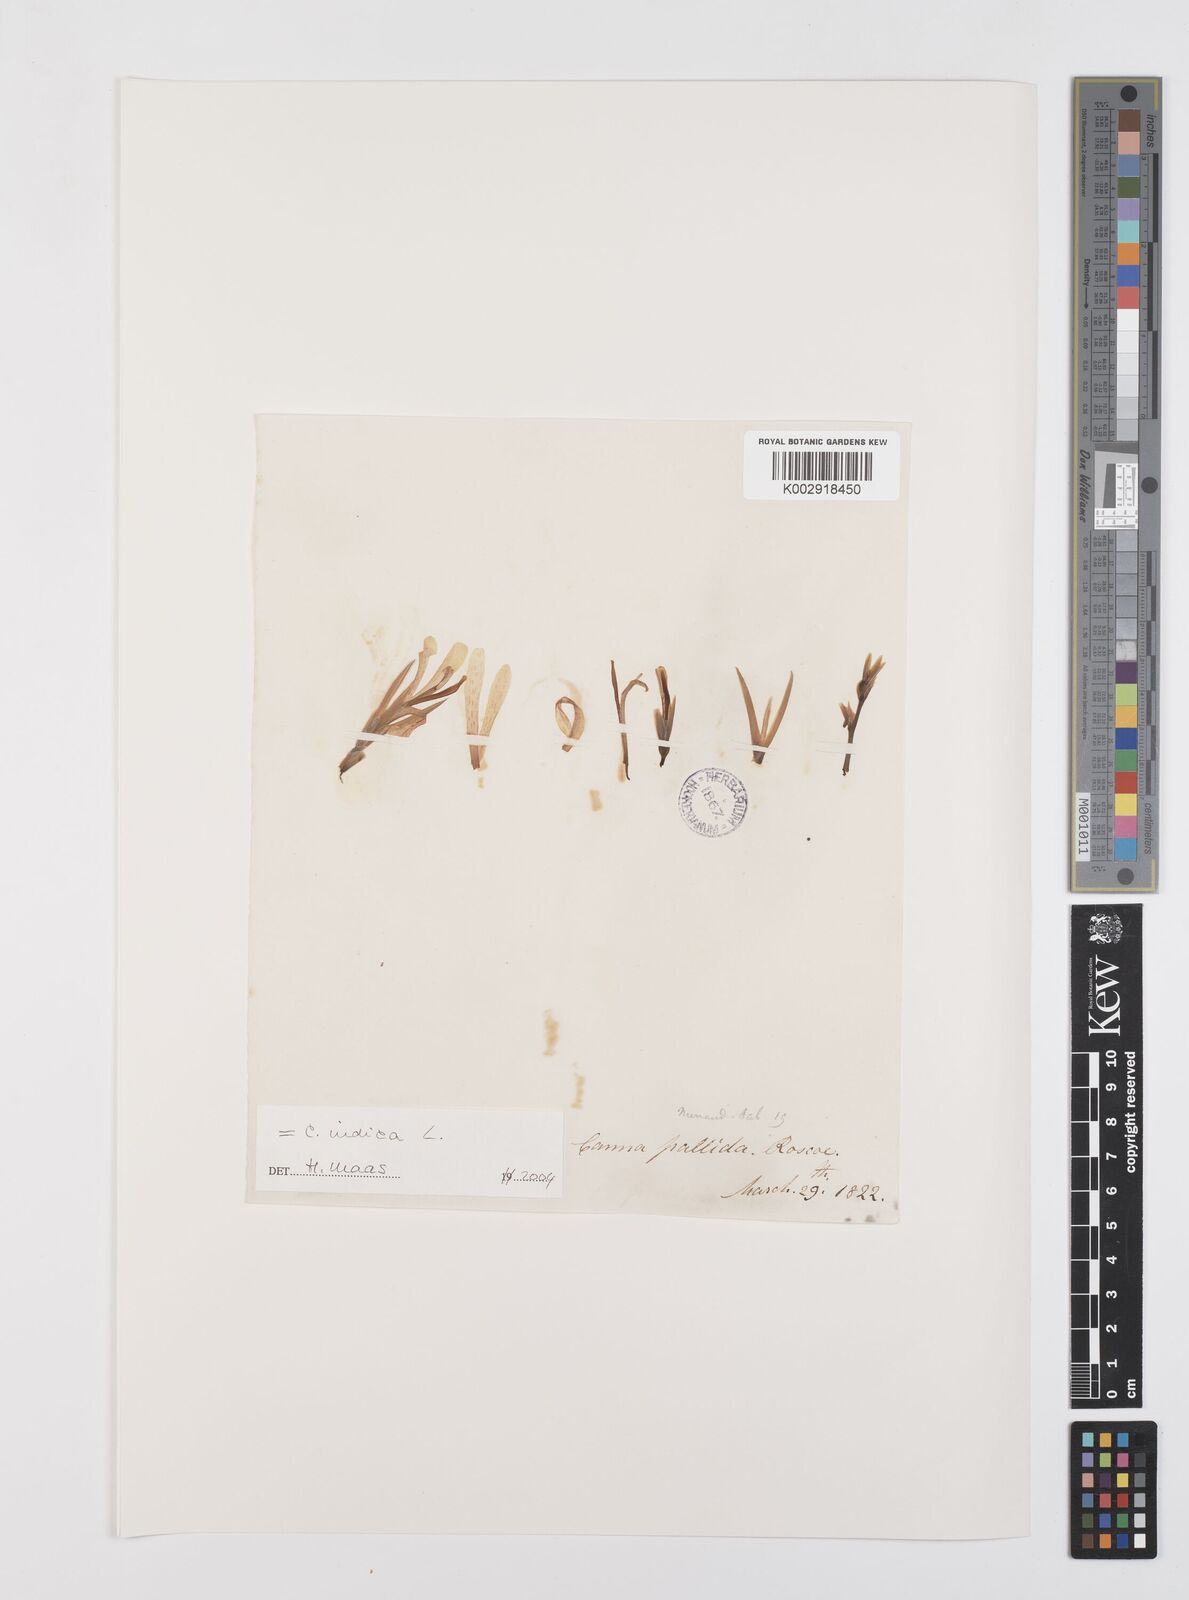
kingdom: Plantae
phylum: Tracheophyta
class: Liliopsida
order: Zingiberales
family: Cannaceae
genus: Canna
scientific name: Canna indica
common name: Indian shot
